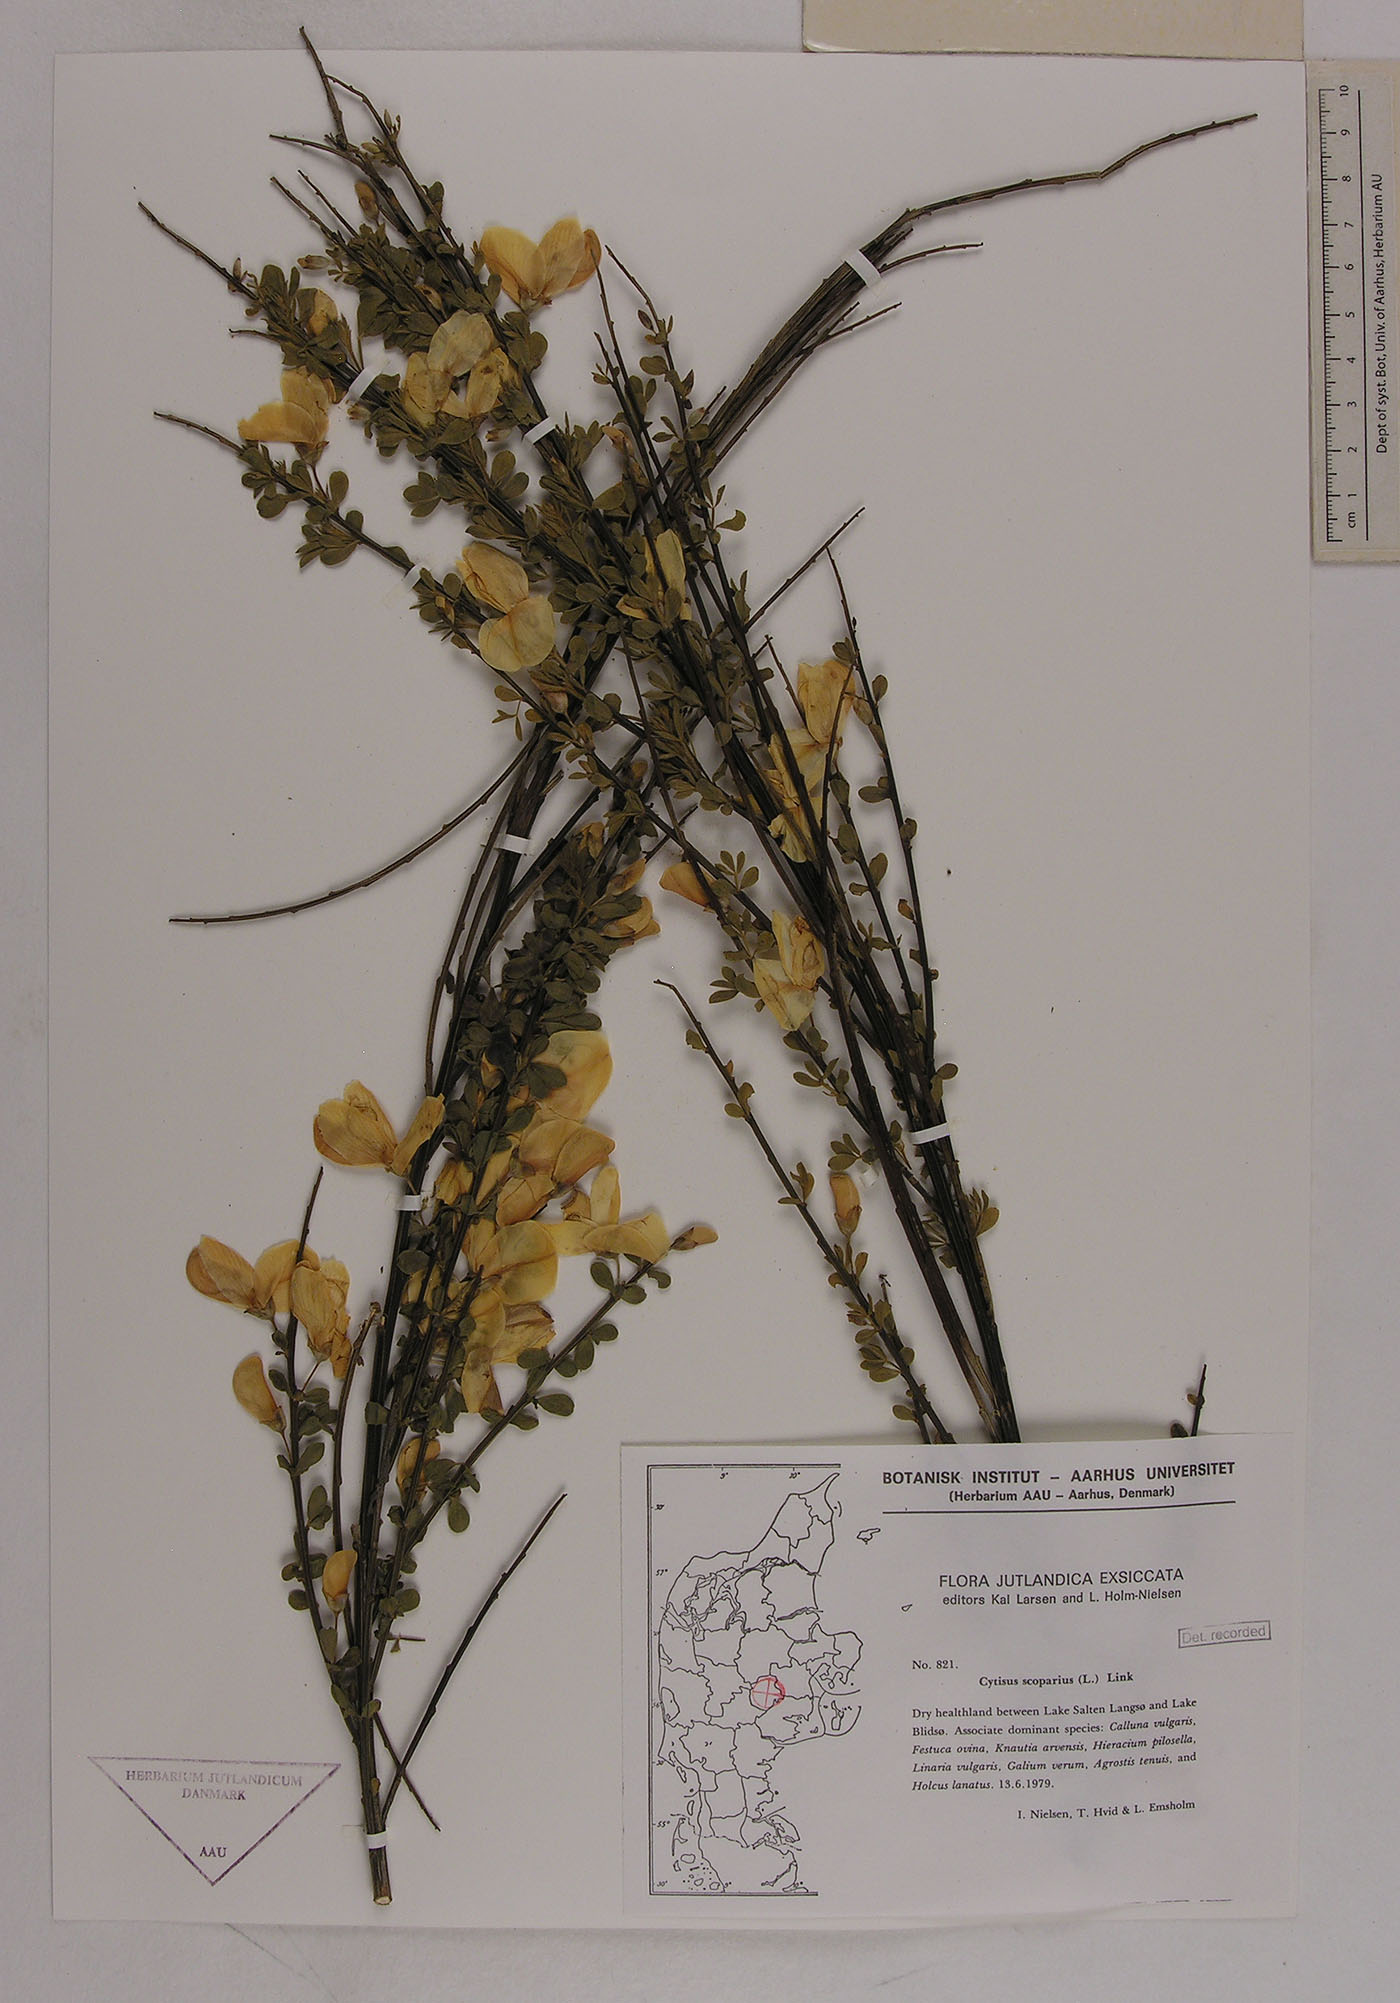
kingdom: Plantae
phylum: Tracheophyta
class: Magnoliopsida
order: Fabales
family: Fabaceae
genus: Cytisus
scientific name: Cytisus scoparius
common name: Scotch broom
